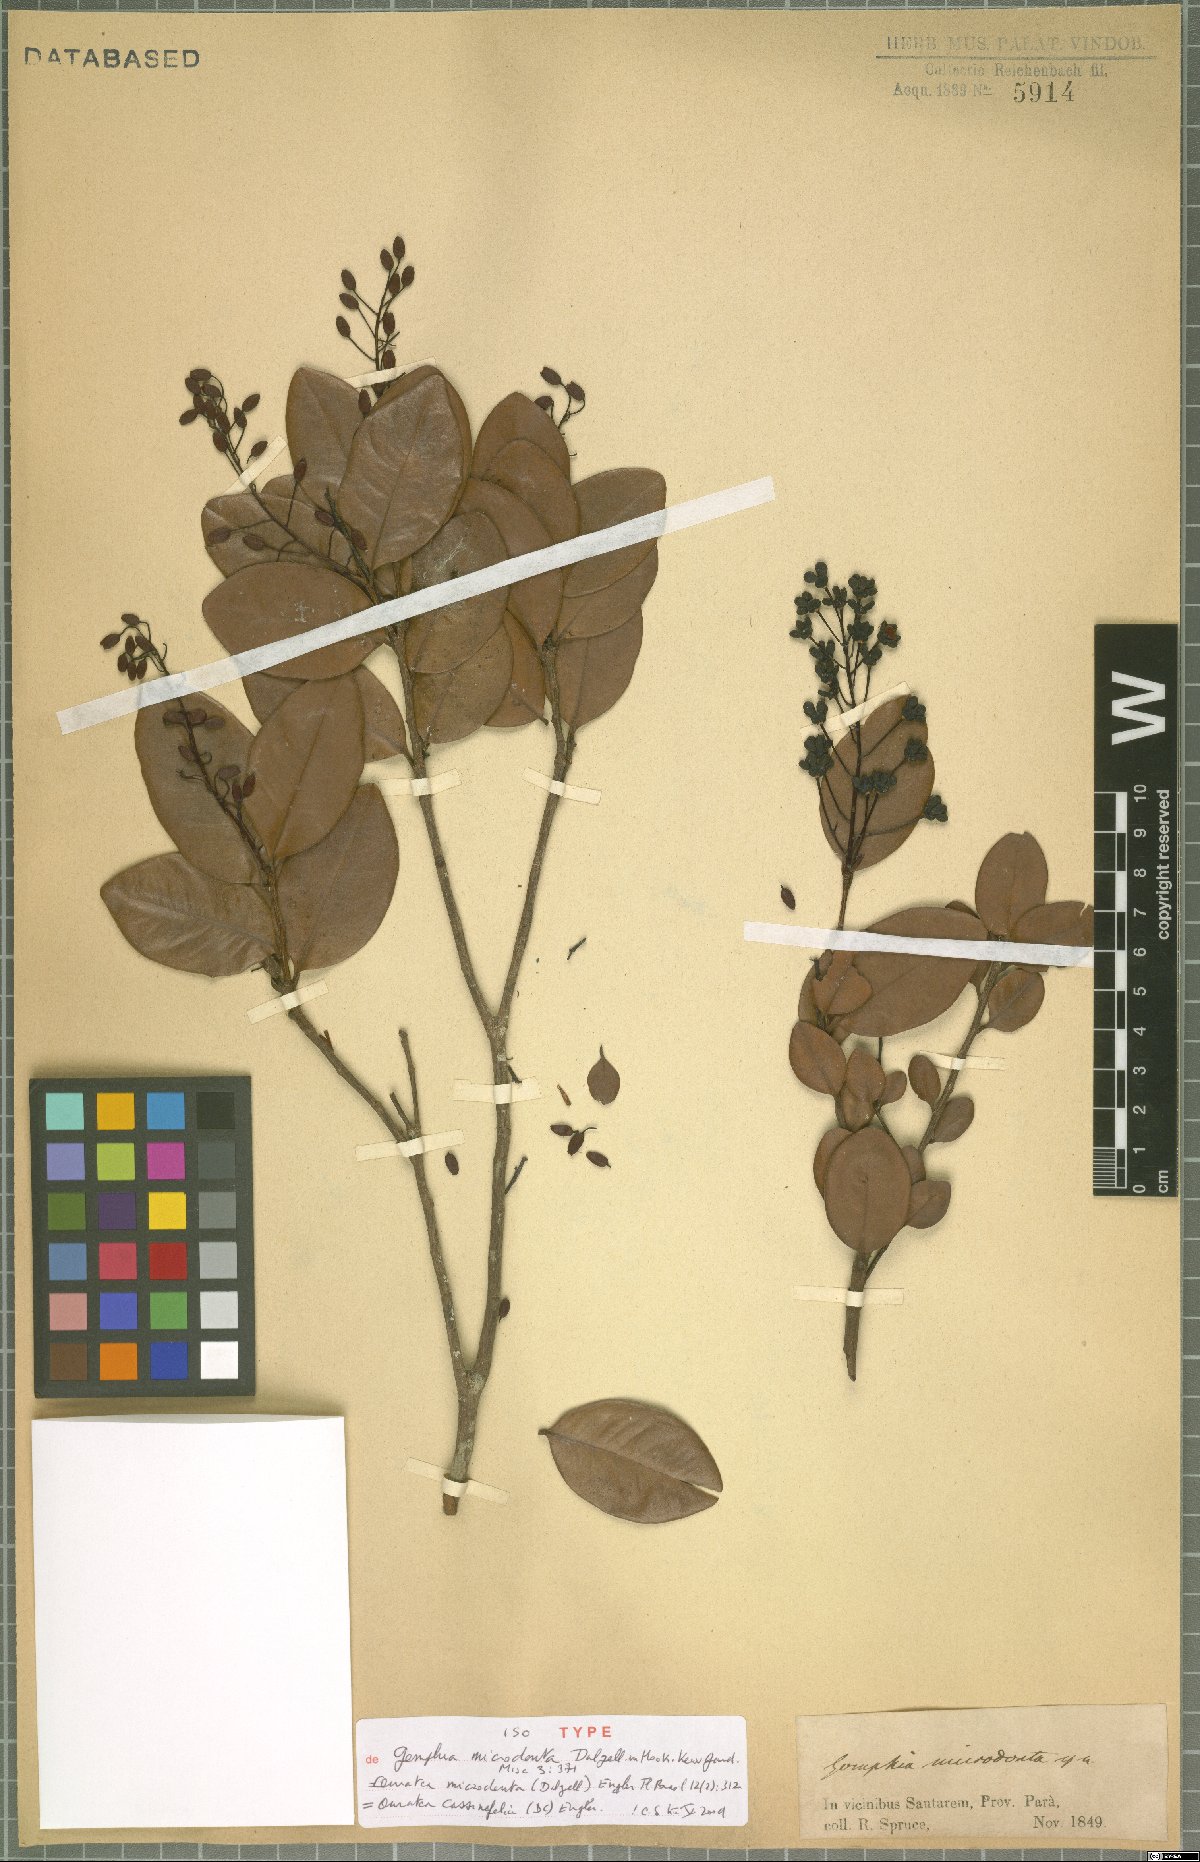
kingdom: Plantae
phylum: Tracheophyta
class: Magnoliopsida
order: Malpighiales
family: Ochnaceae
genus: Ouratea
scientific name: Ouratea cassinefolia
